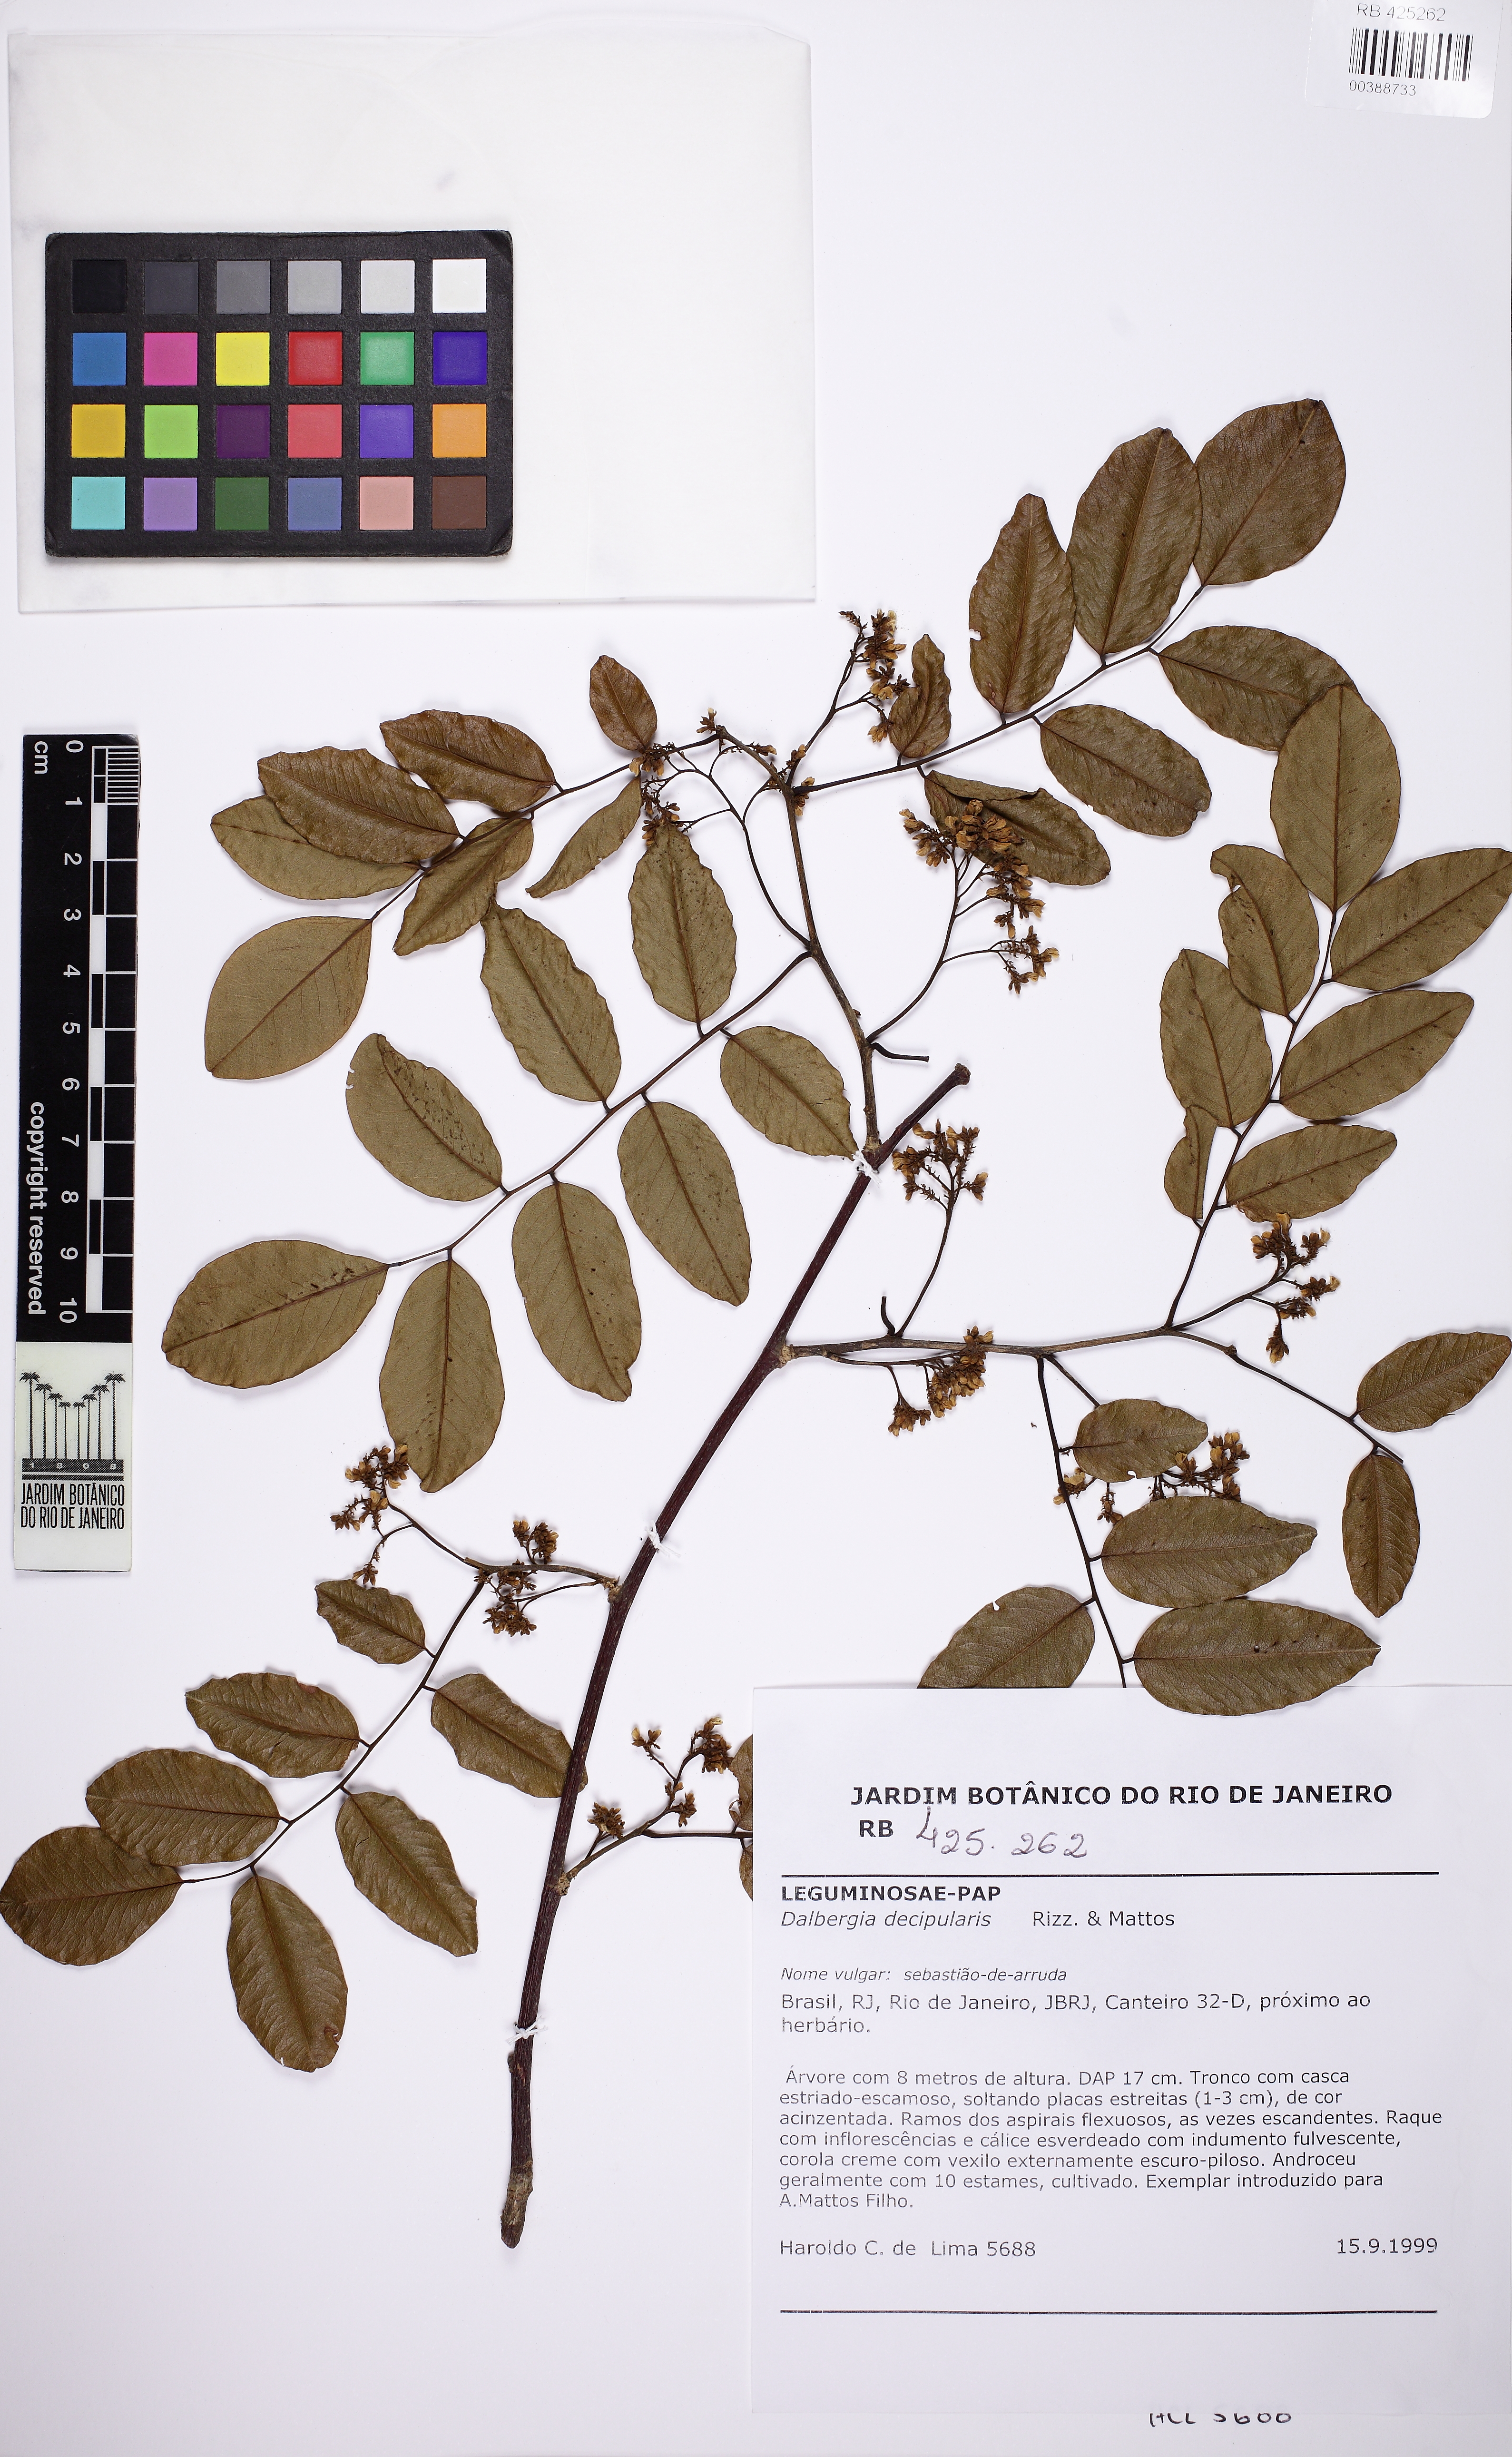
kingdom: Plantae
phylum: Tracheophyta
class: Magnoliopsida
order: Fabales
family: Fabaceae
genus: Dalbergia
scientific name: Dalbergia decipularis
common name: Brazilian tulipwood
